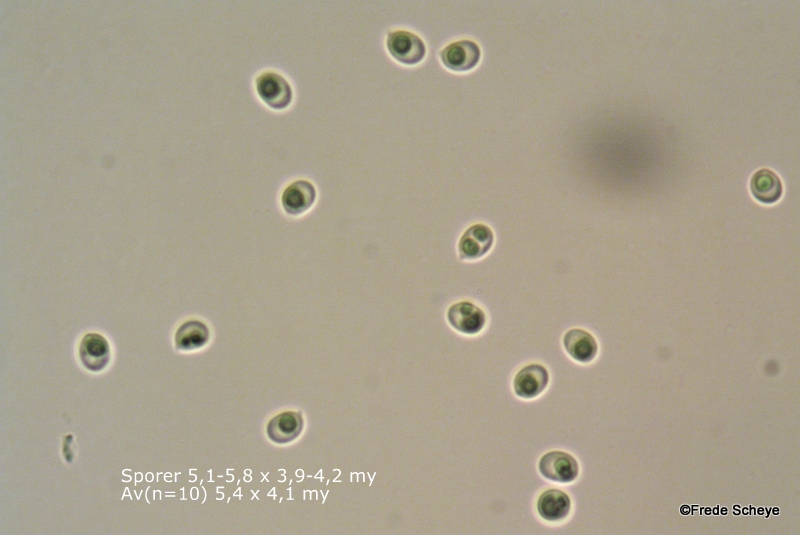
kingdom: Fungi
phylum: Basidiomycota
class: Agaricomycetes
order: Hymenochaetales
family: Schizoporaceae
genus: Schizopora
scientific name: Schizopora paradoxa
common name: hvid tandsvamp
